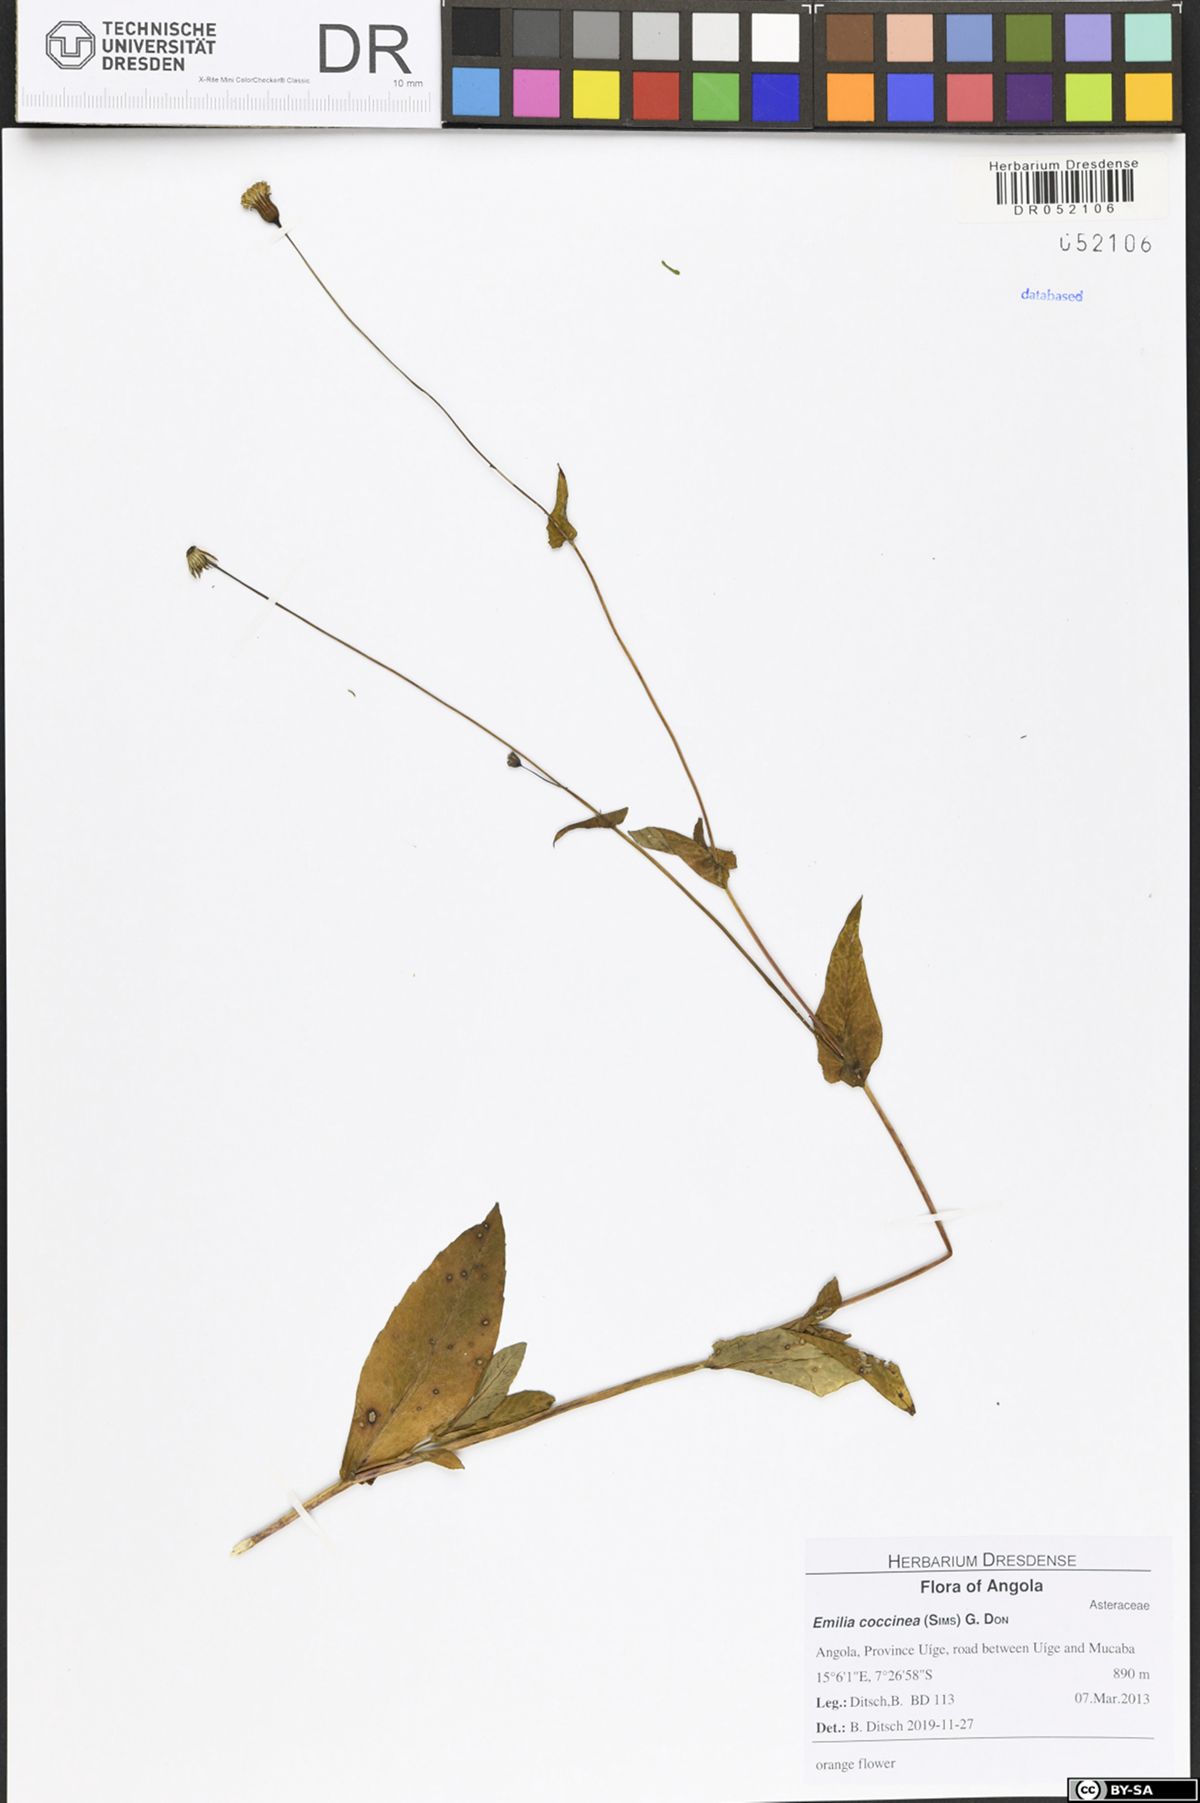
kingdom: Plantae
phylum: Tracheophyta
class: Magnoliopsida
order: Asterales
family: Asteraceae
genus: Emilia
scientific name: Emilia coccinea
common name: Scarlet tasselflower
